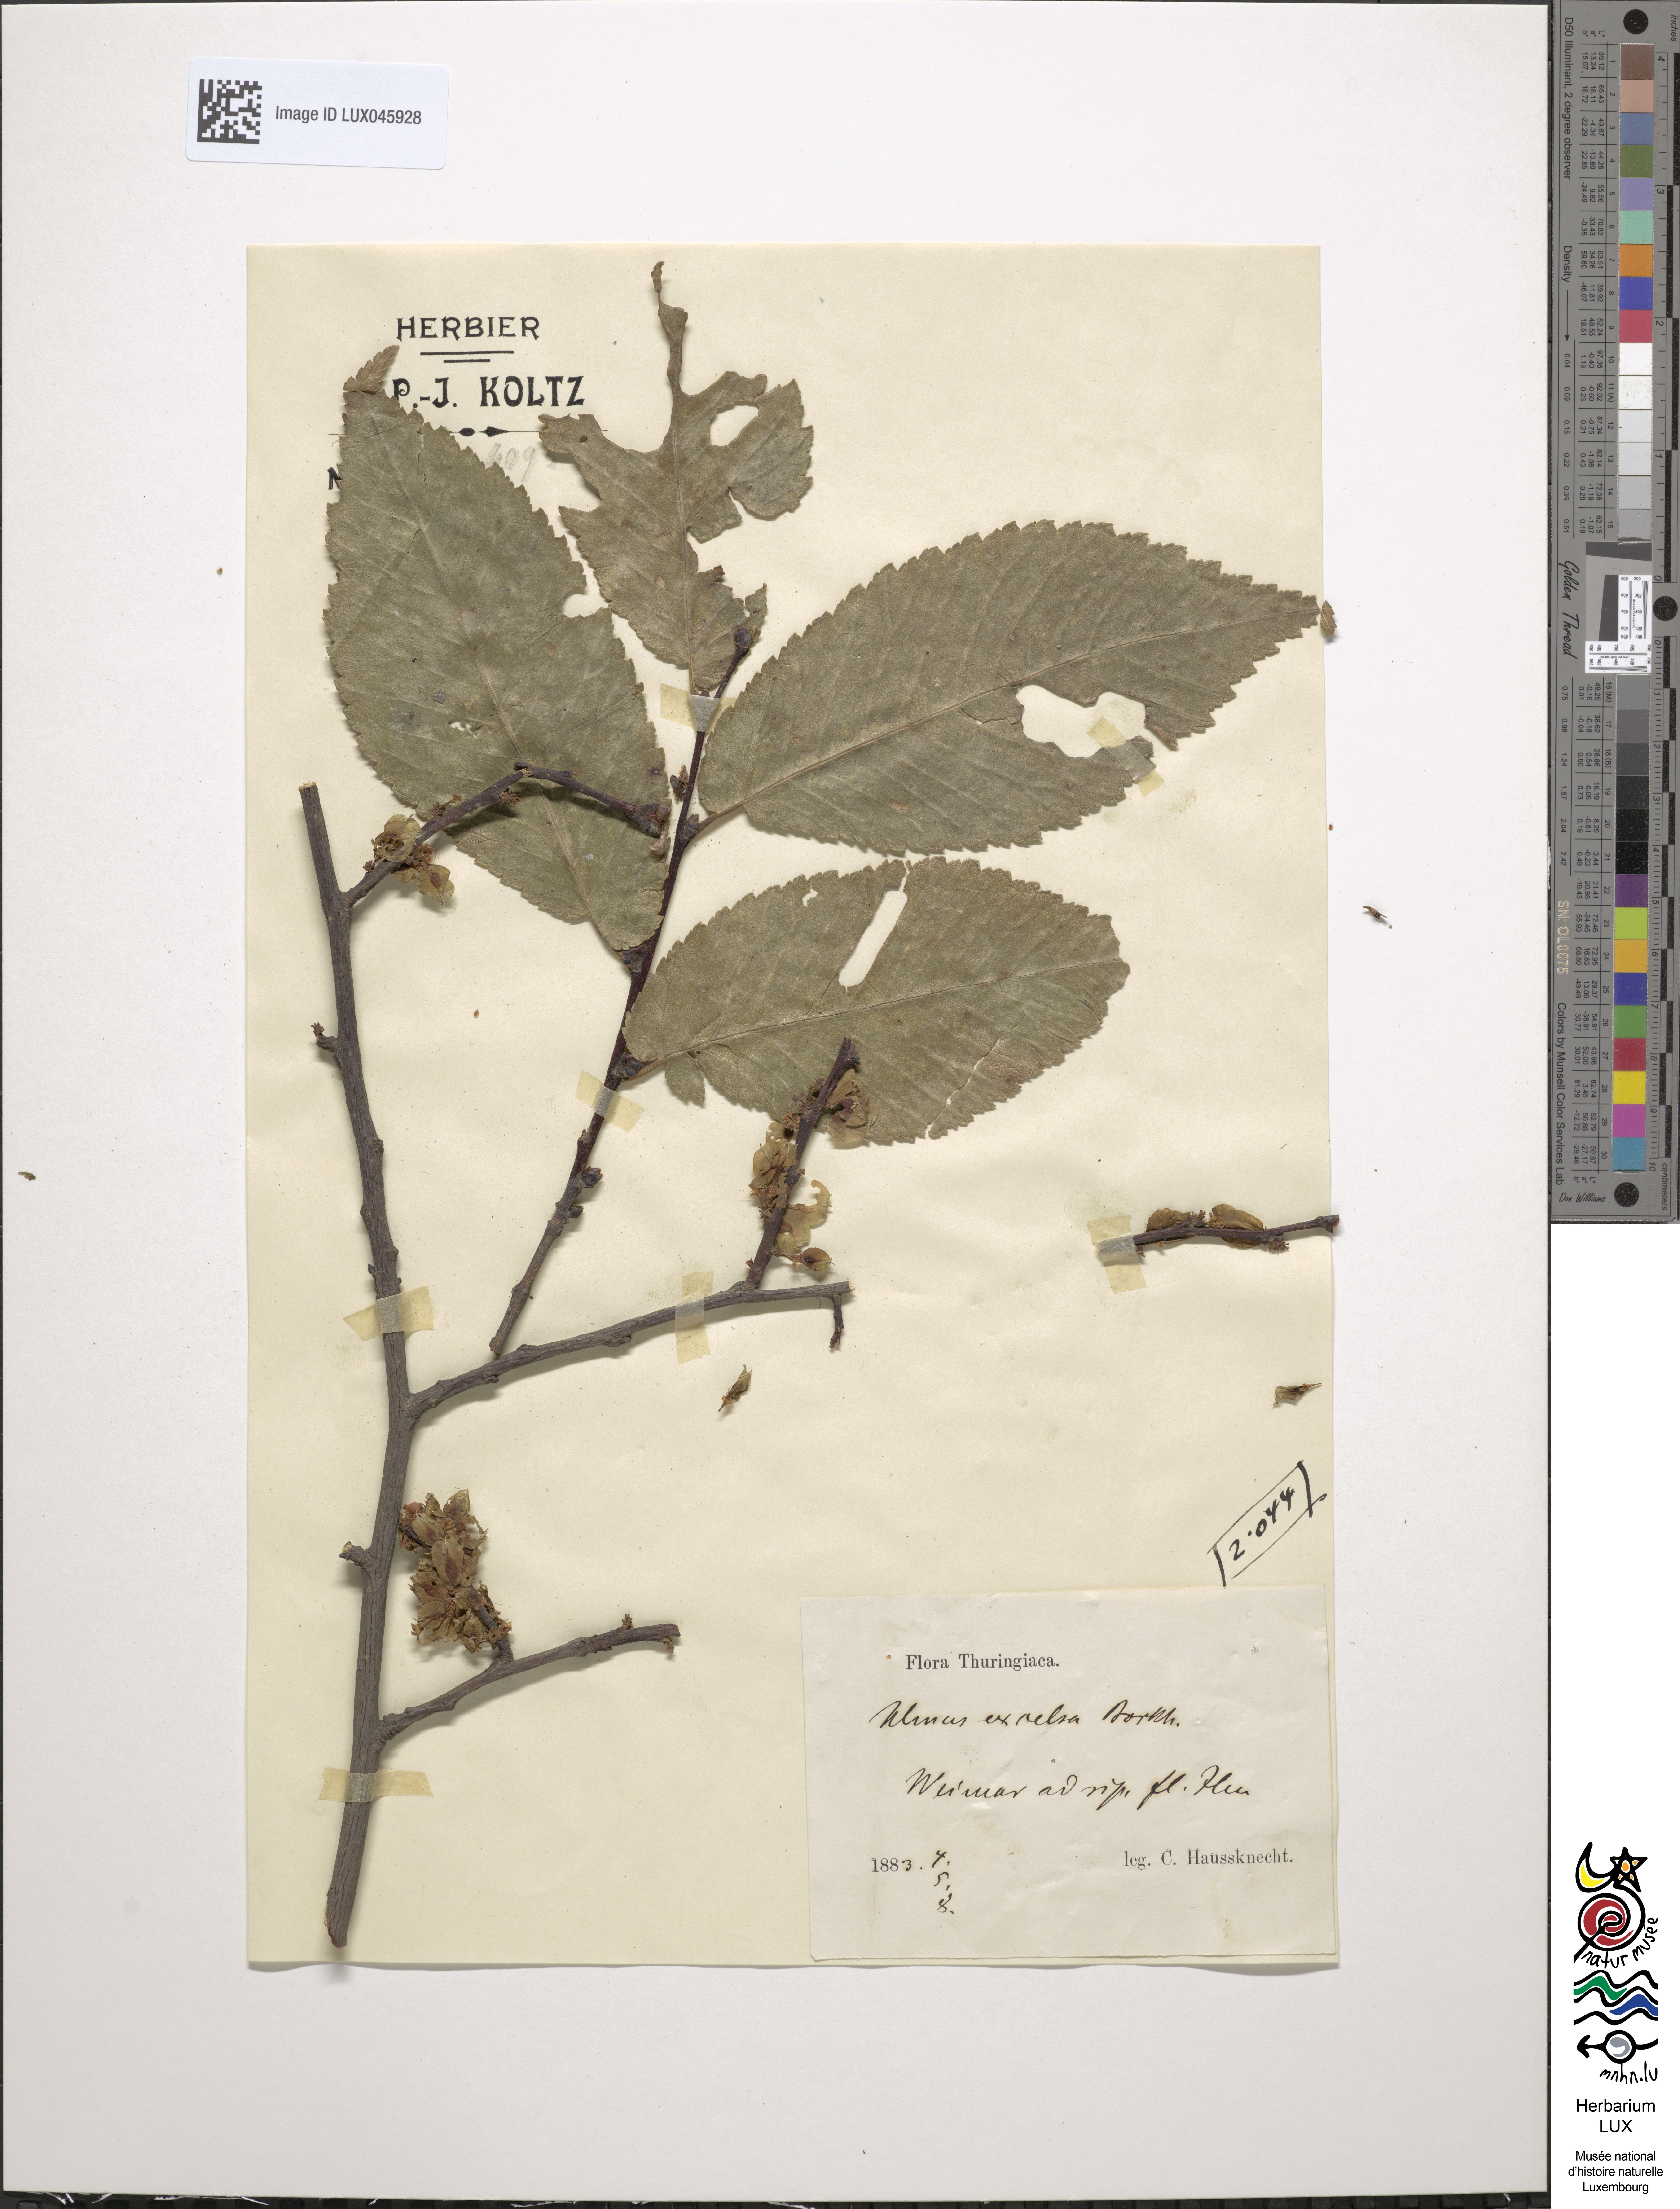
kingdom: Plantae
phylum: Tracheophyta
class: Magnoliopsida
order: Rosales
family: Ulmaceae
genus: Ulmus
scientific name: Ulmus glabra
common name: Wych elm
